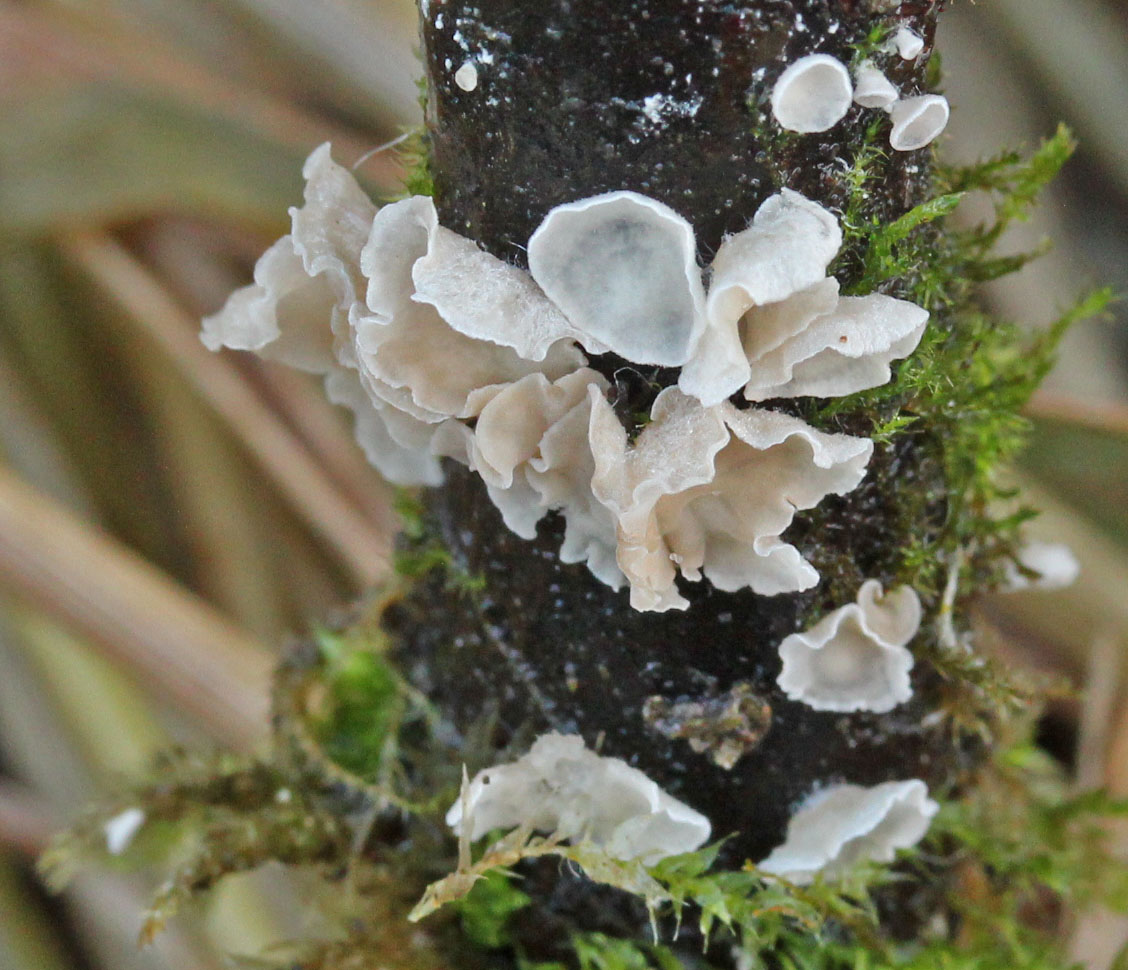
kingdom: Fungi
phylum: Basidiomycota
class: Agaricomycetes
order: Agaricales
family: Hygrophoraceae
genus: Arrhenia
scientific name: Arrhenia retiruga
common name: lille fontænehat
